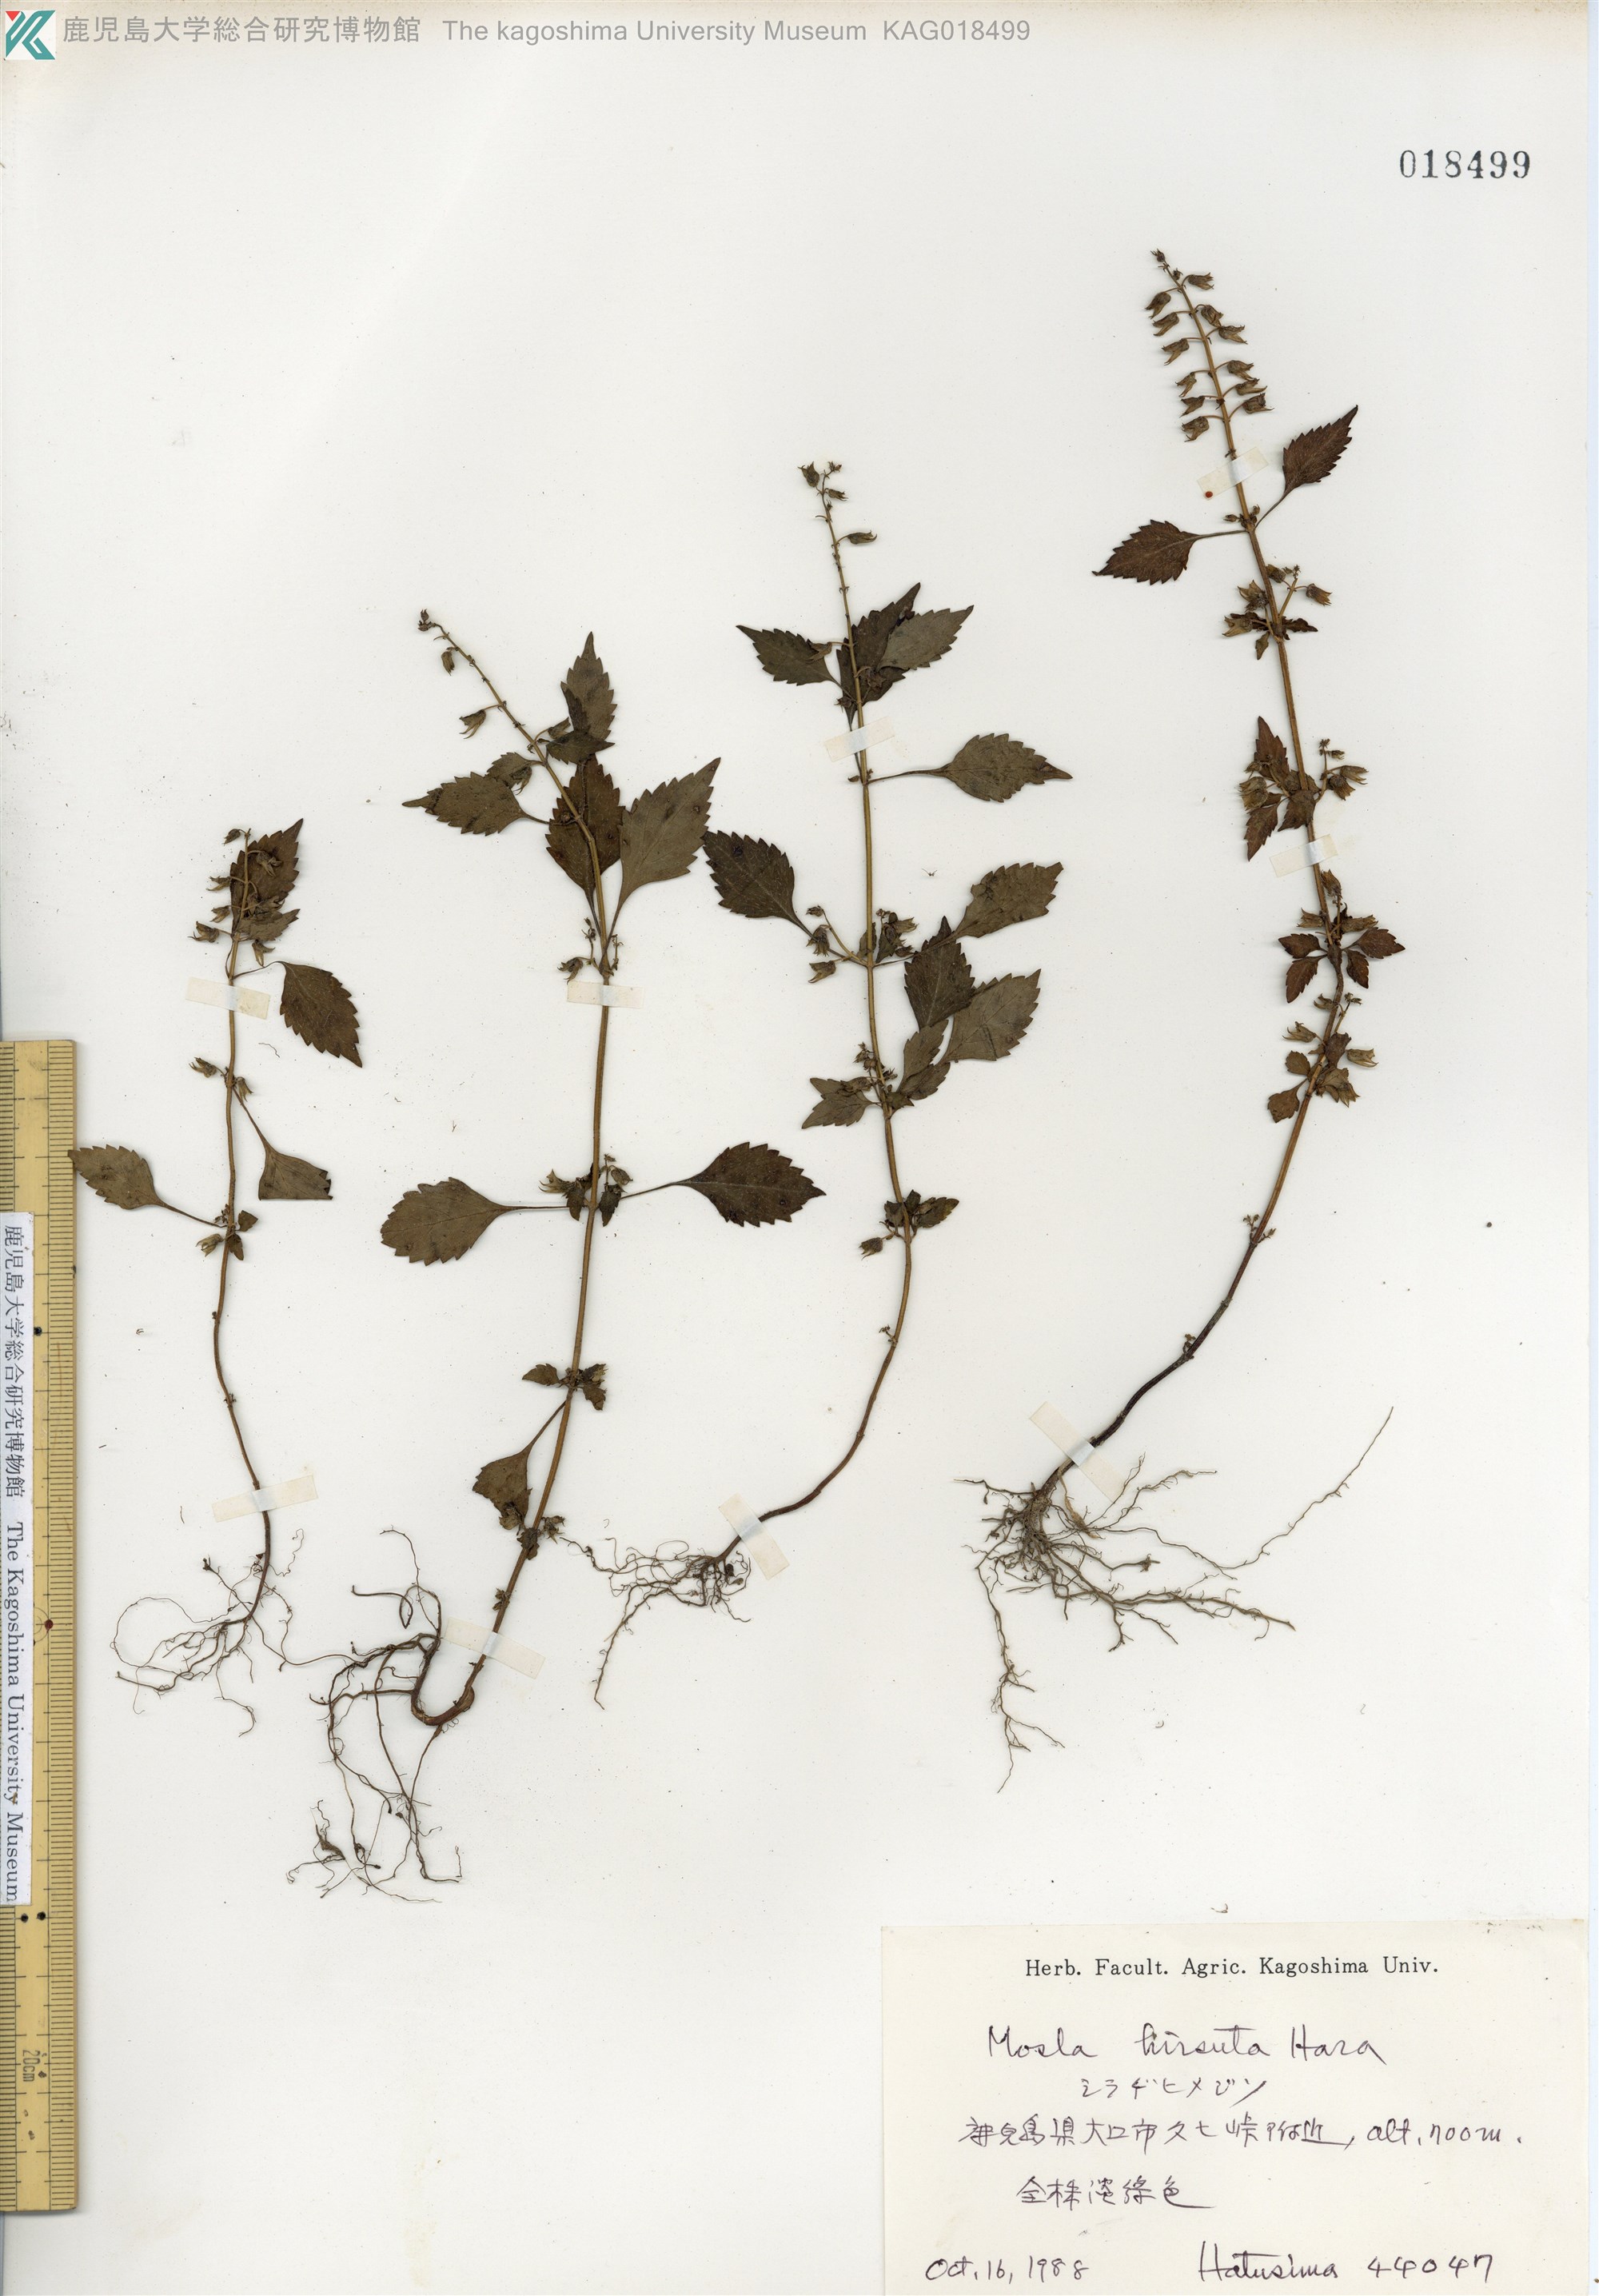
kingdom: Plantae
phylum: Tracheophyta
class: Magnoliopsida
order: Lamiales
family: Lamiaceae
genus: Mosla
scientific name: Mosla dianthera
